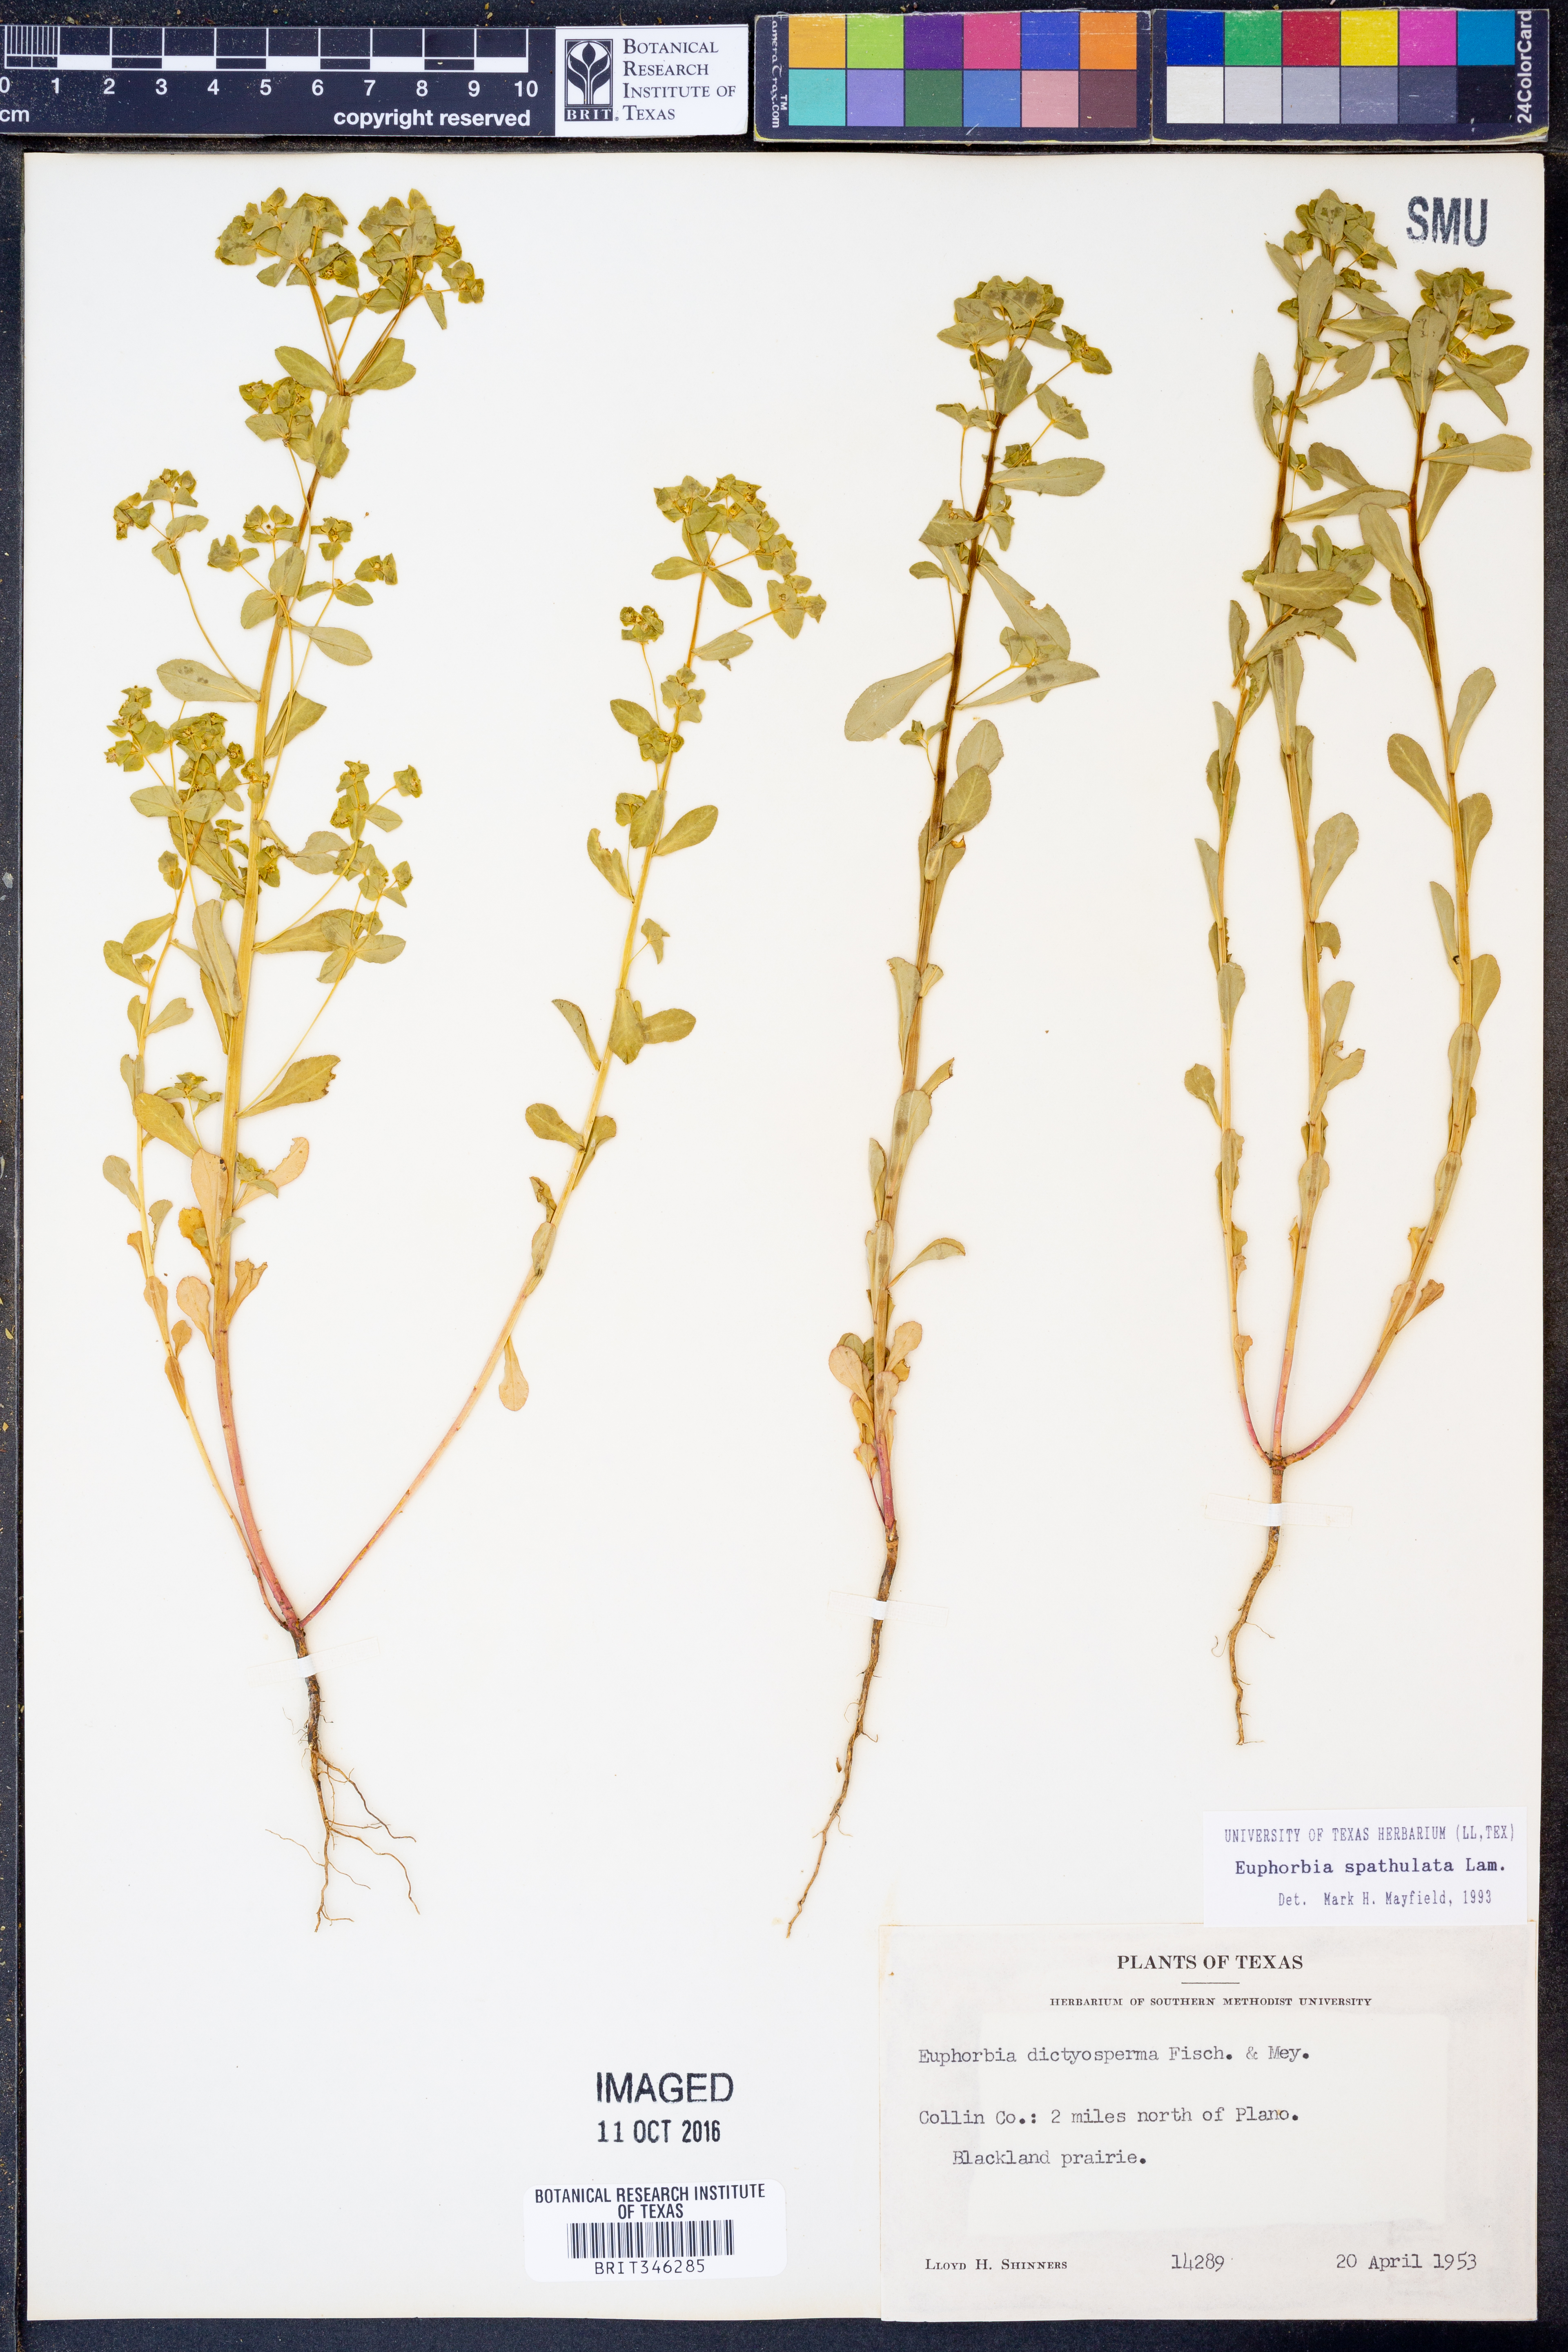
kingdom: Plantae
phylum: Tracheophyta
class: Magnoliopsida
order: Malpighiales
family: Euphorbiaceae
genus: Euphorbia
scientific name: Euphorbia spathulata
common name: Blunt spurge
